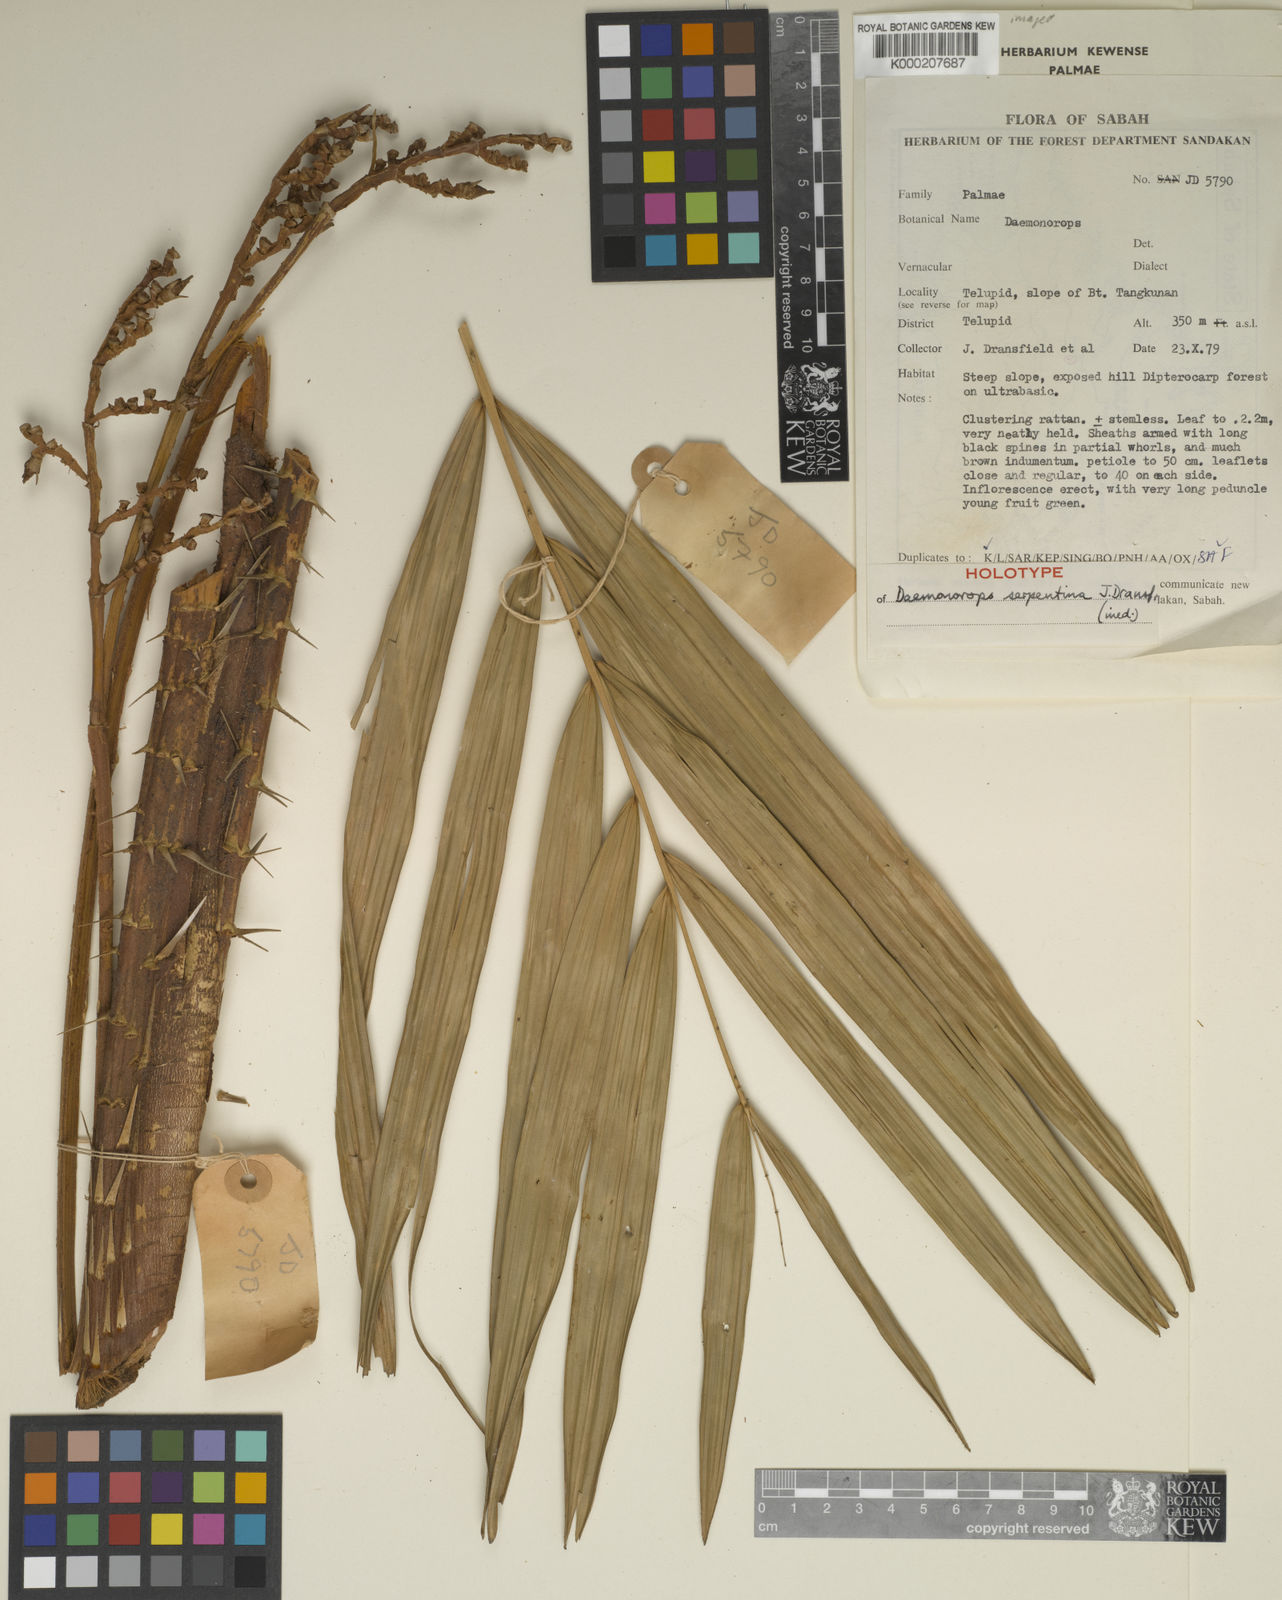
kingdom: Plantae
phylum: Tracheophyta
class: Liliopsida
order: Arecales
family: Arecaceae
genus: Calamus
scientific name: Calamus serpentinus
